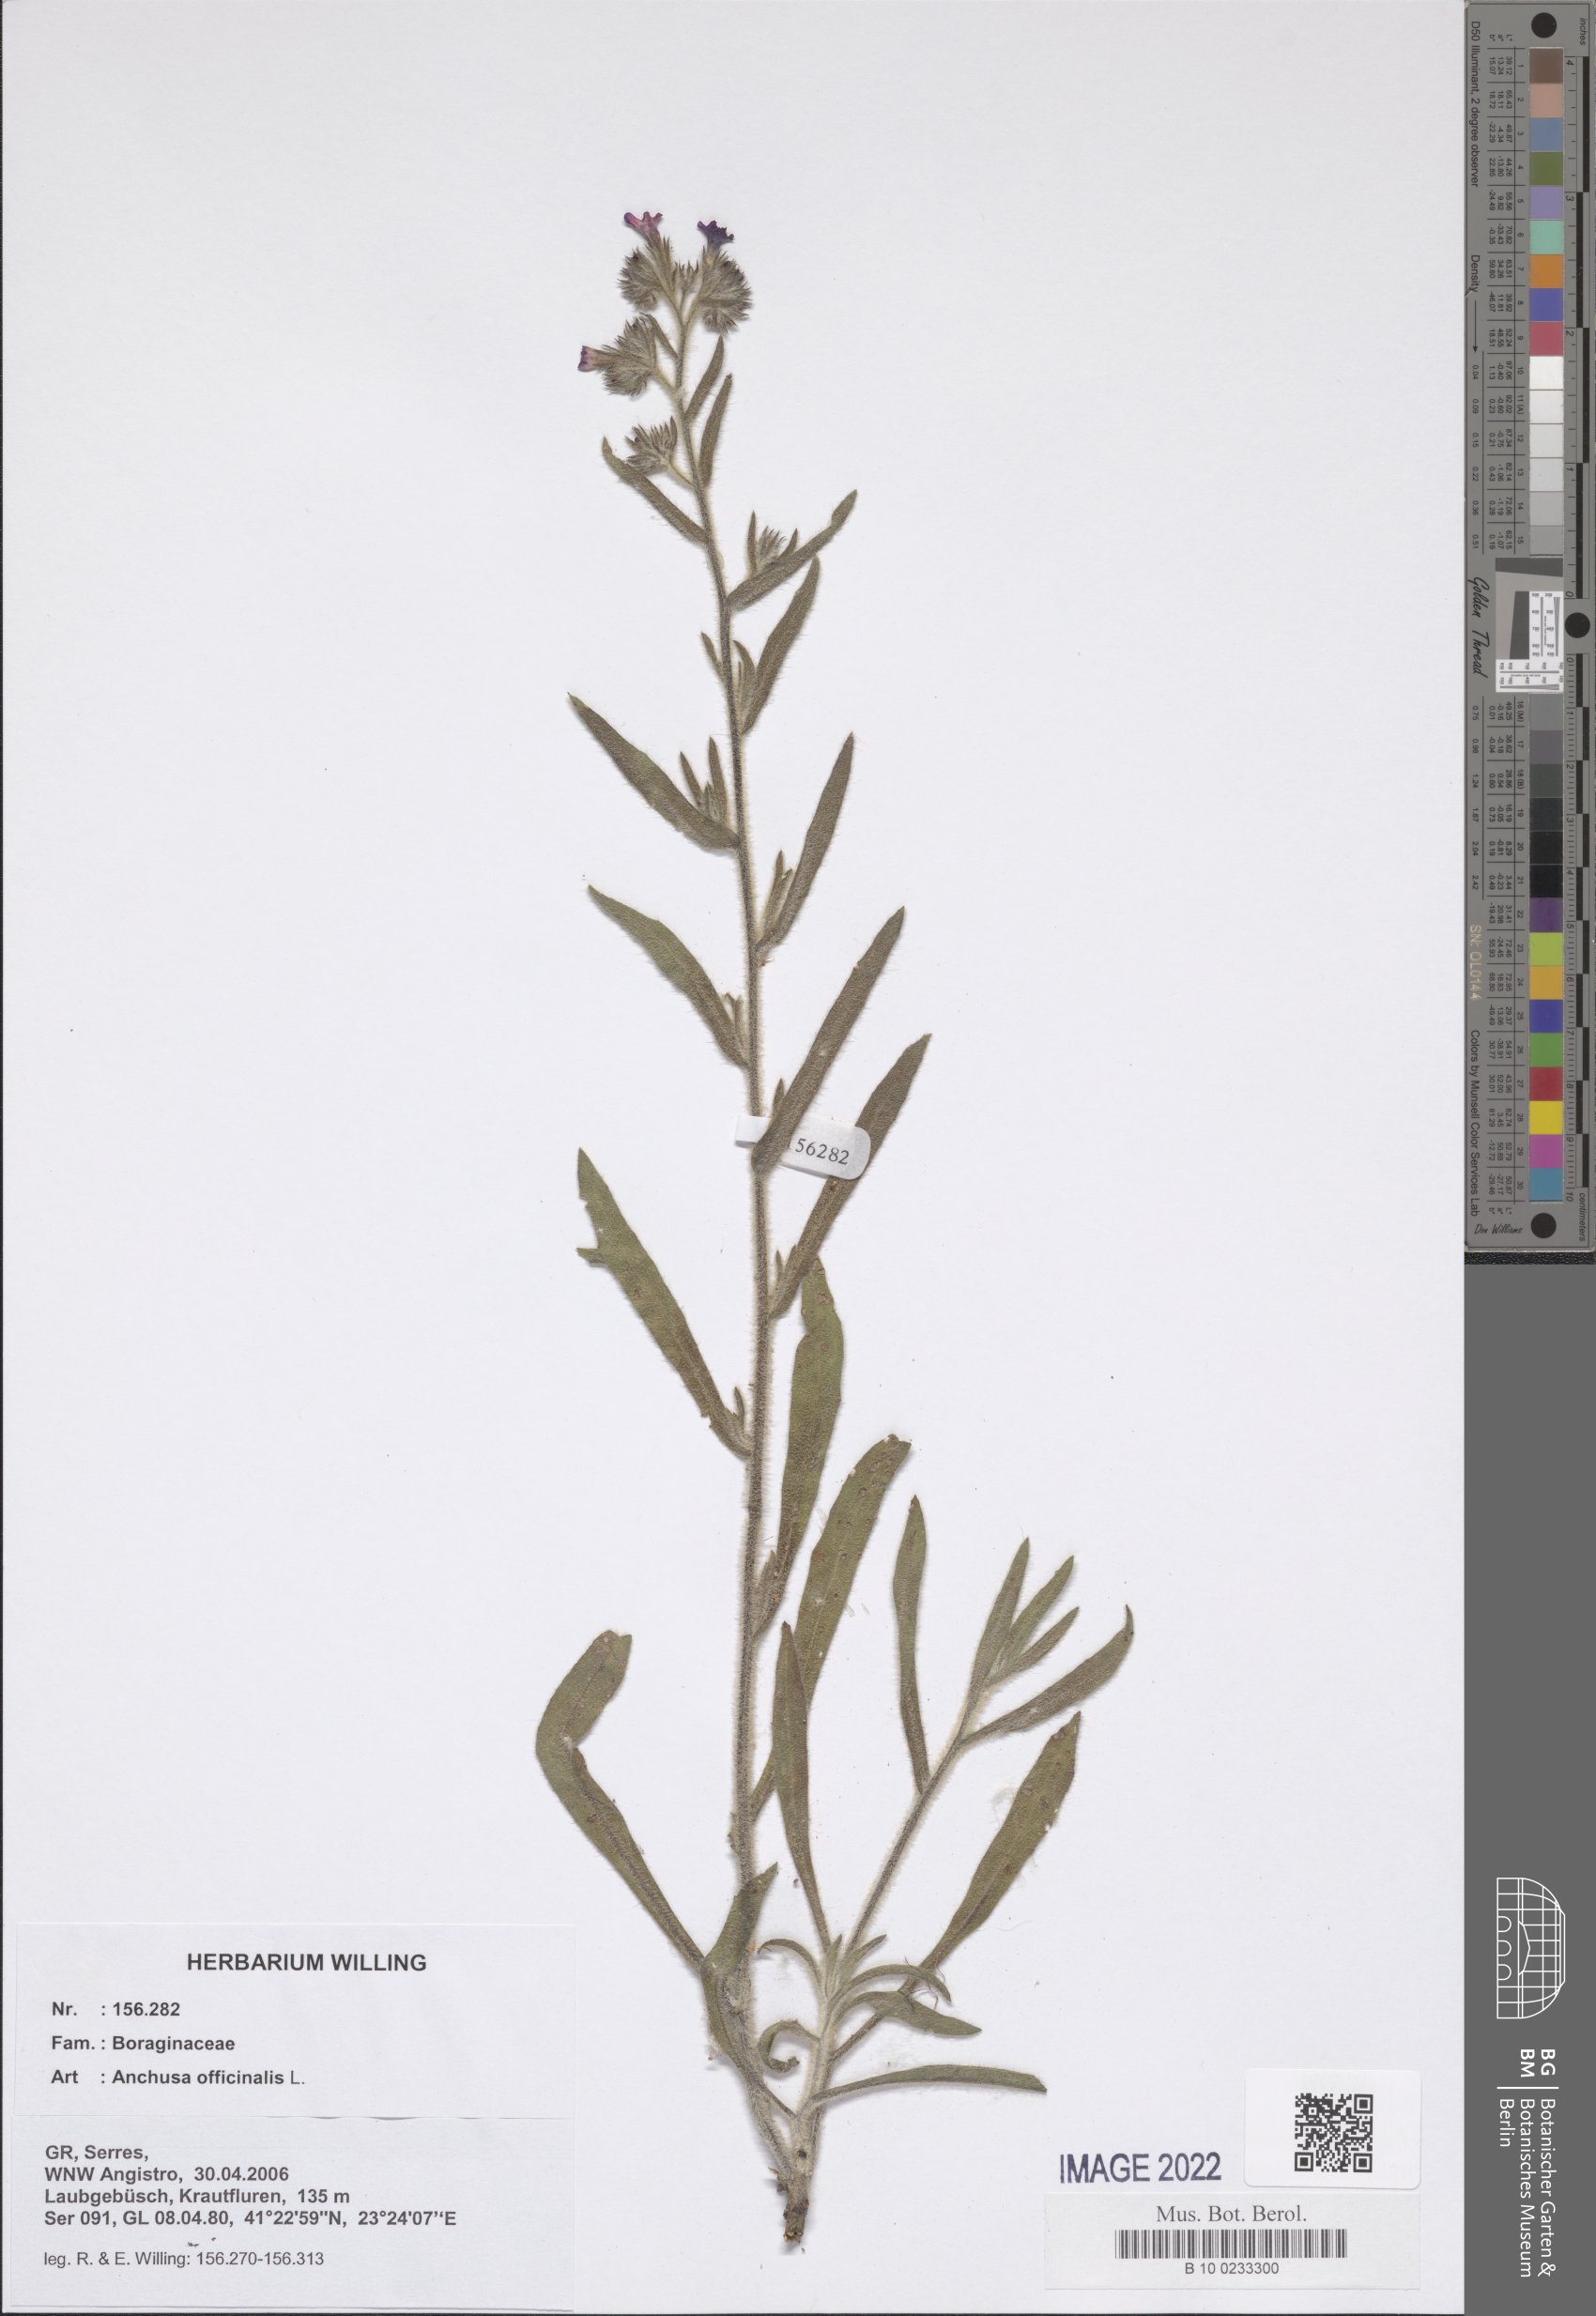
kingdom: Plantae
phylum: Tracheophyta
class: Magnoliopsida
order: Boraginales
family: Boraginaceae
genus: Anchusa
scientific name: Anchusa officinalis
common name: Alkanet
